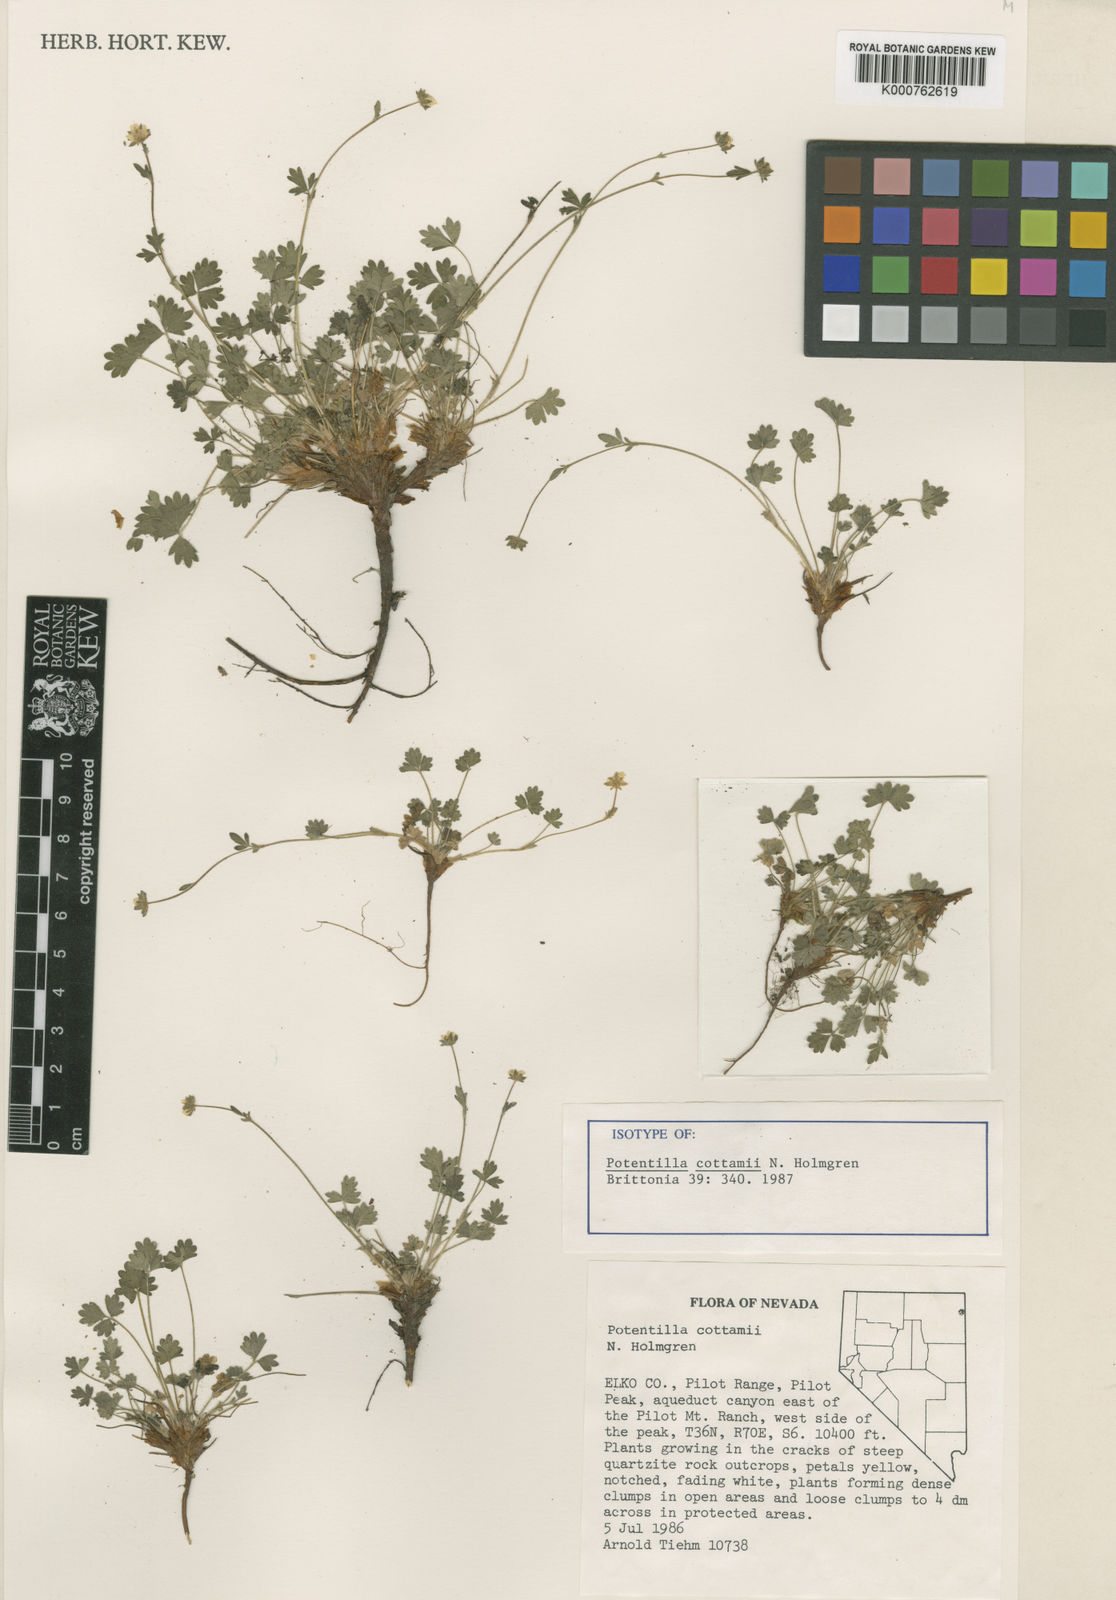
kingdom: Plantae
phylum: Tracheophyta
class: Magnoliopsida
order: Rosales
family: Rosaceae
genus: Potentilla
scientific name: Potentilla cottamii
